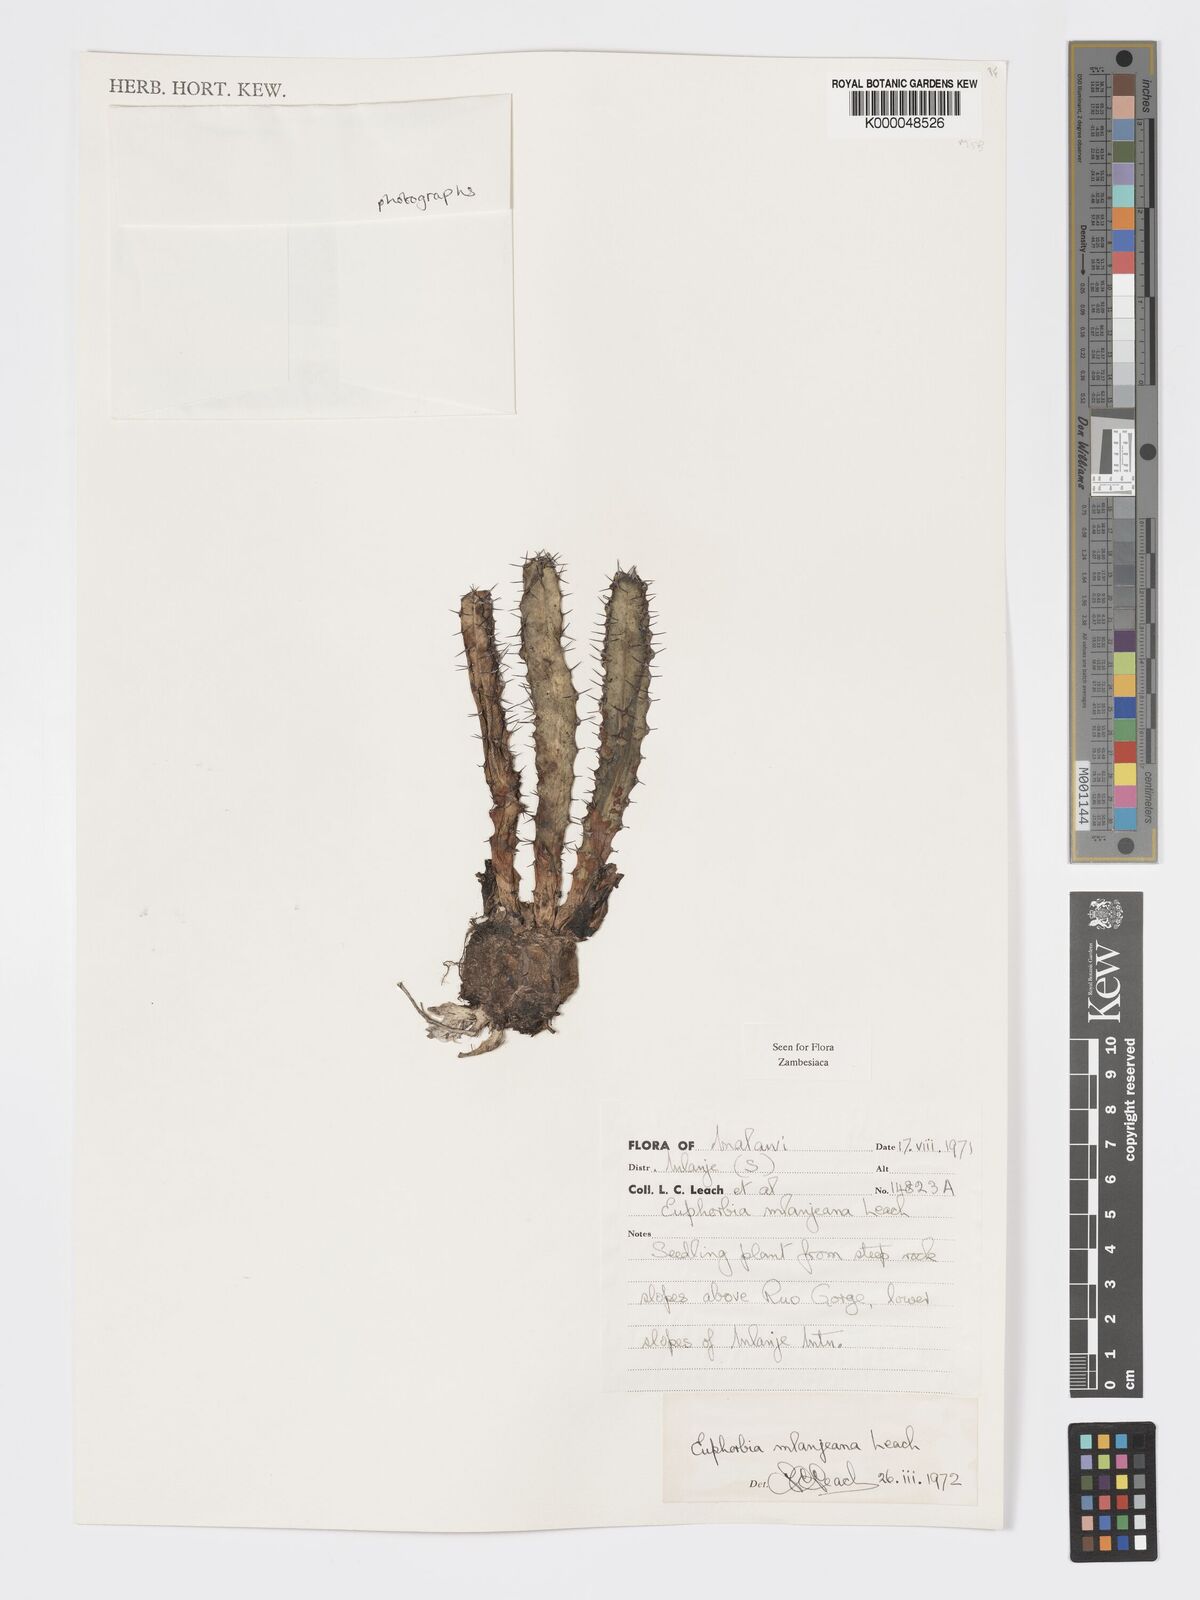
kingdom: Plantae
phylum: Tracheophyta
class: Magnoliopsida
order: Malpighiales
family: Euphorbiaceae
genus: Euphorbia
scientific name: Euphorbia mlanjeana
